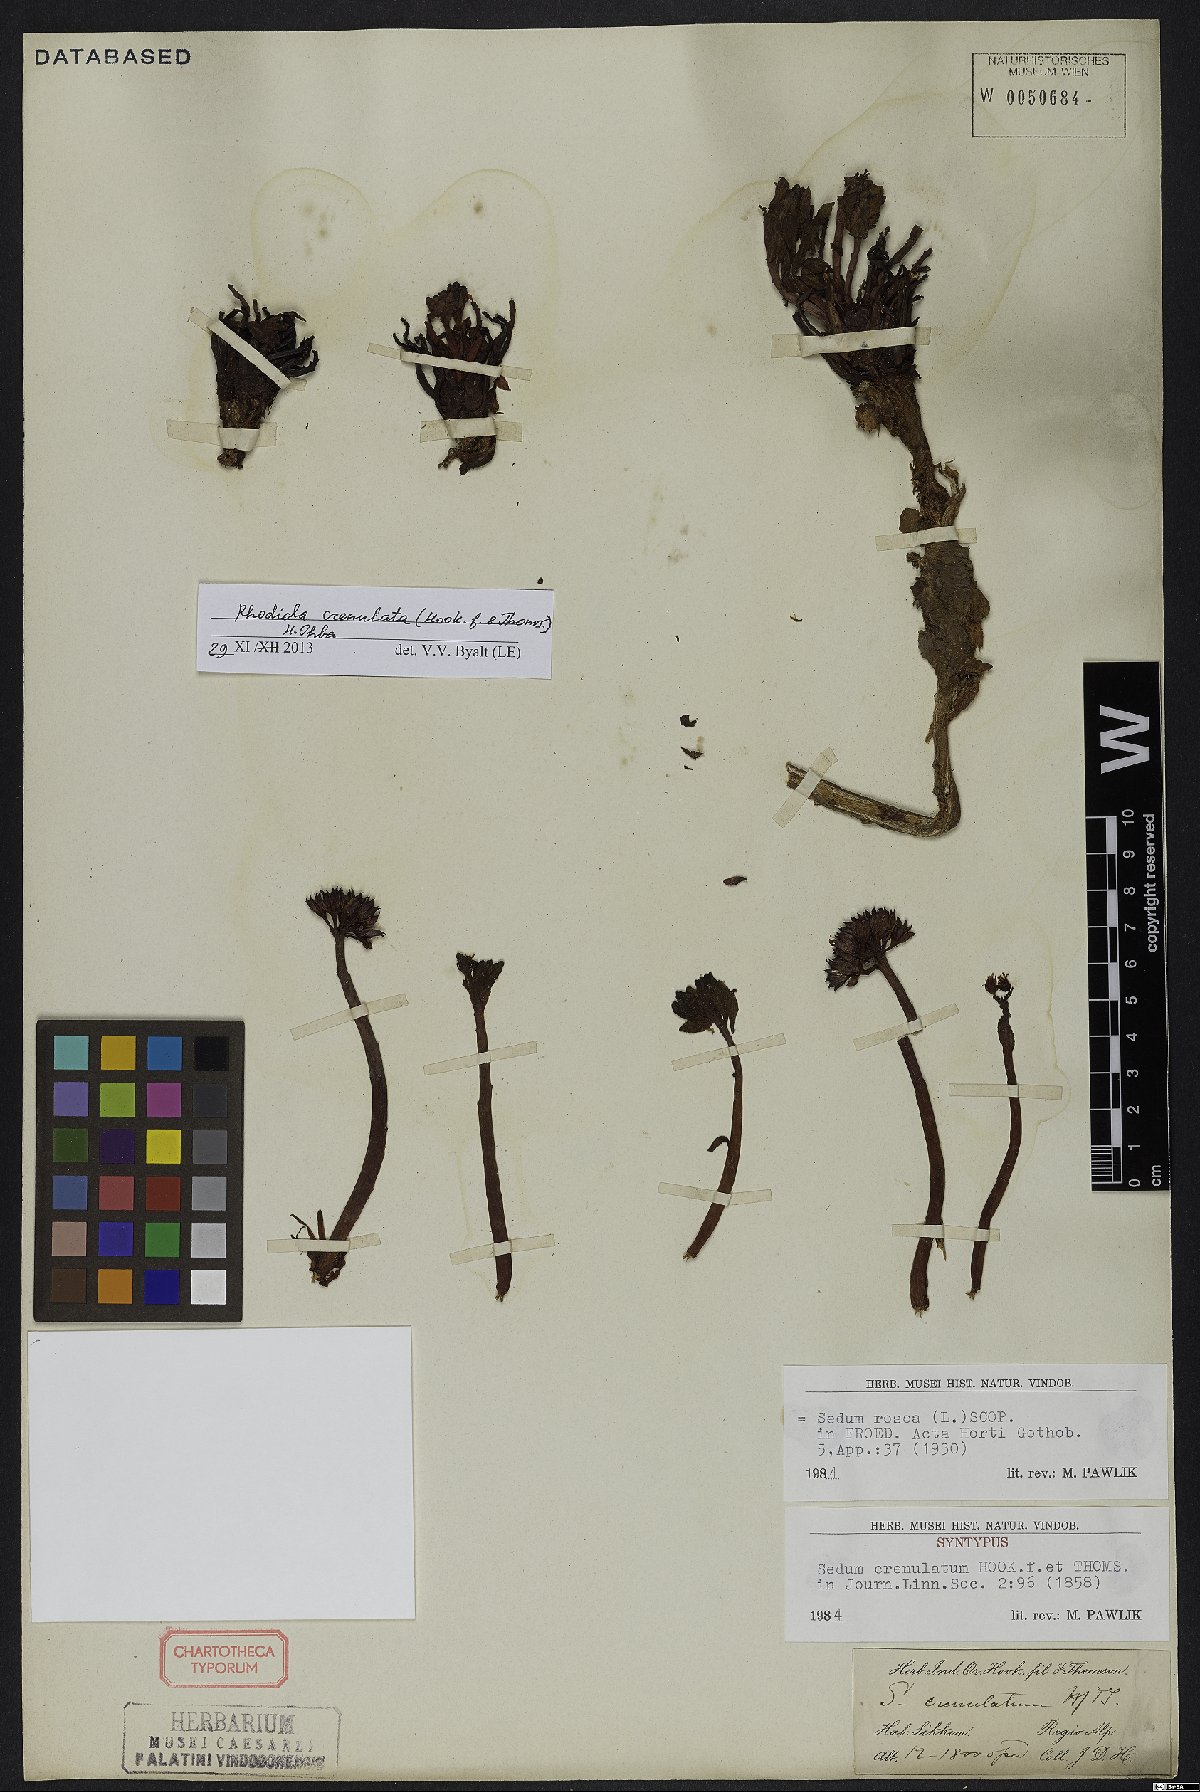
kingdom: Plantae
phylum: Tracheophyta
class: Magnoliopsida
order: Saxifragales
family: Crassulaceae
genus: Rhodiola
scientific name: Rhodiola crenulata
